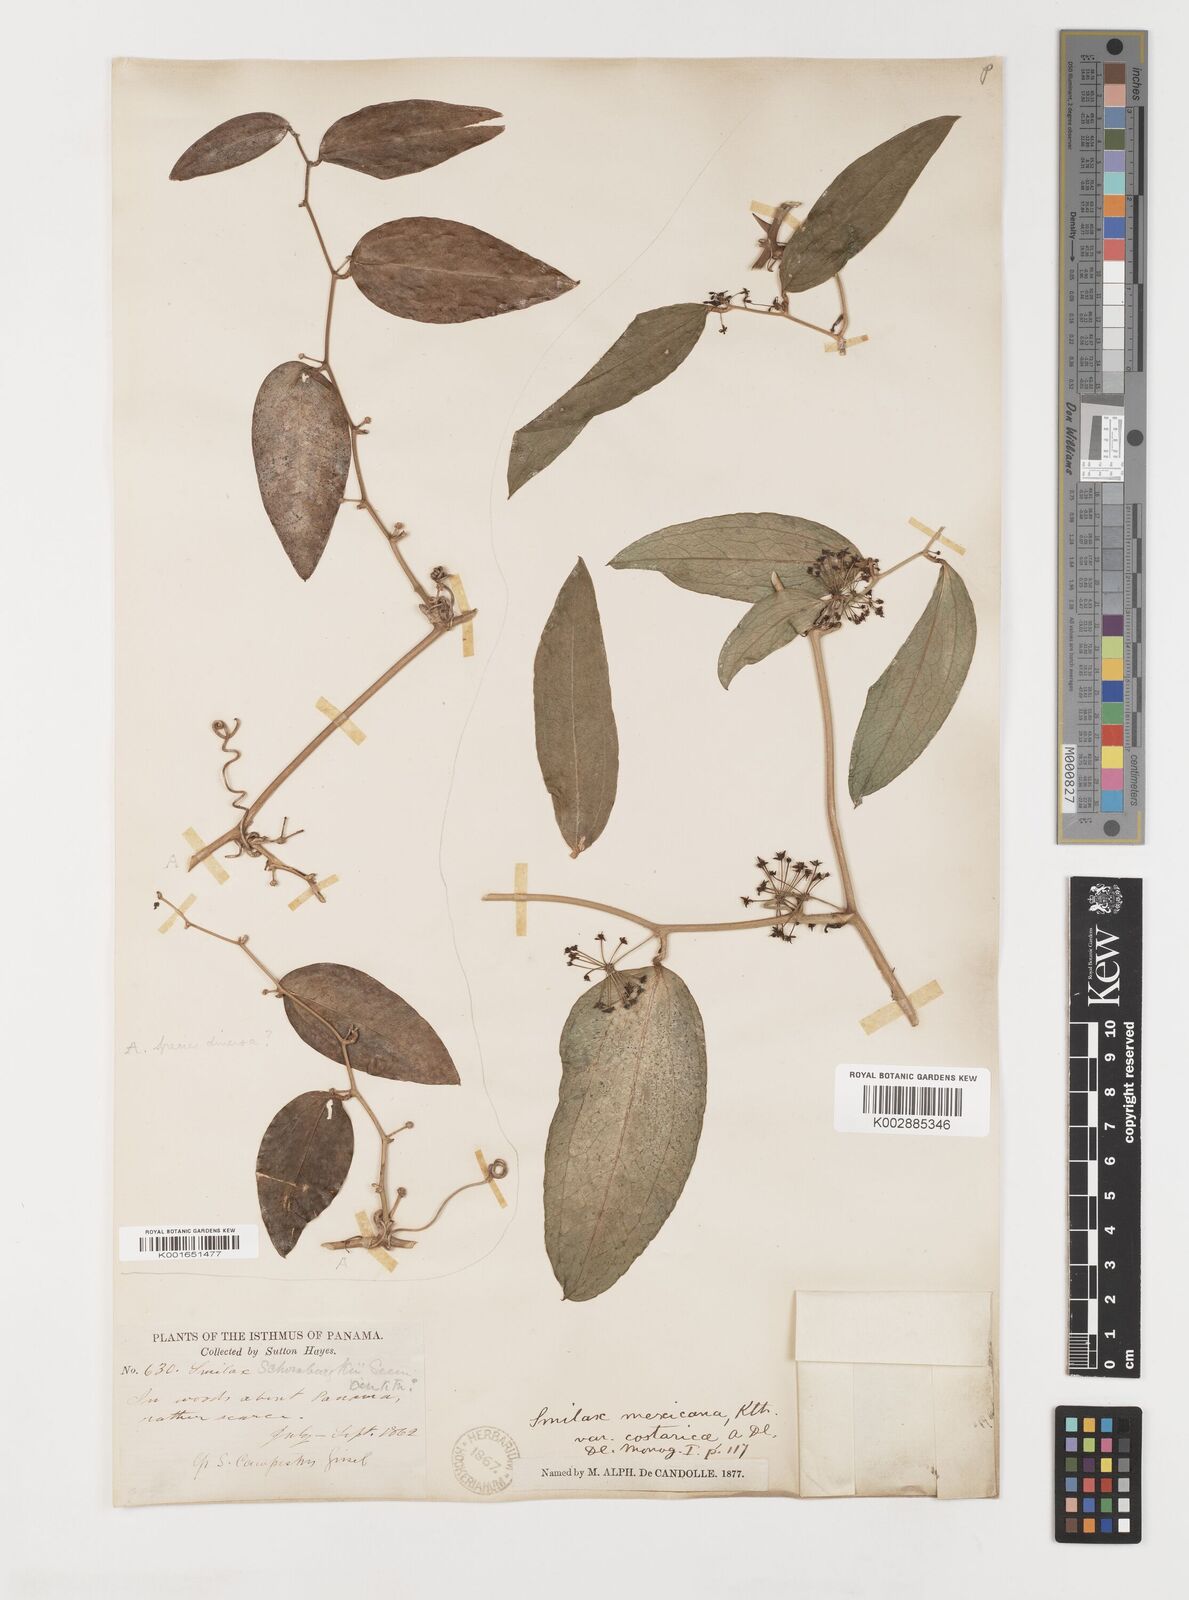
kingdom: Plantae
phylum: Tracheophyta
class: Liliopsida
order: Liliales
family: Smilacaceae
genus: Smilax
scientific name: Smilax spinosa
